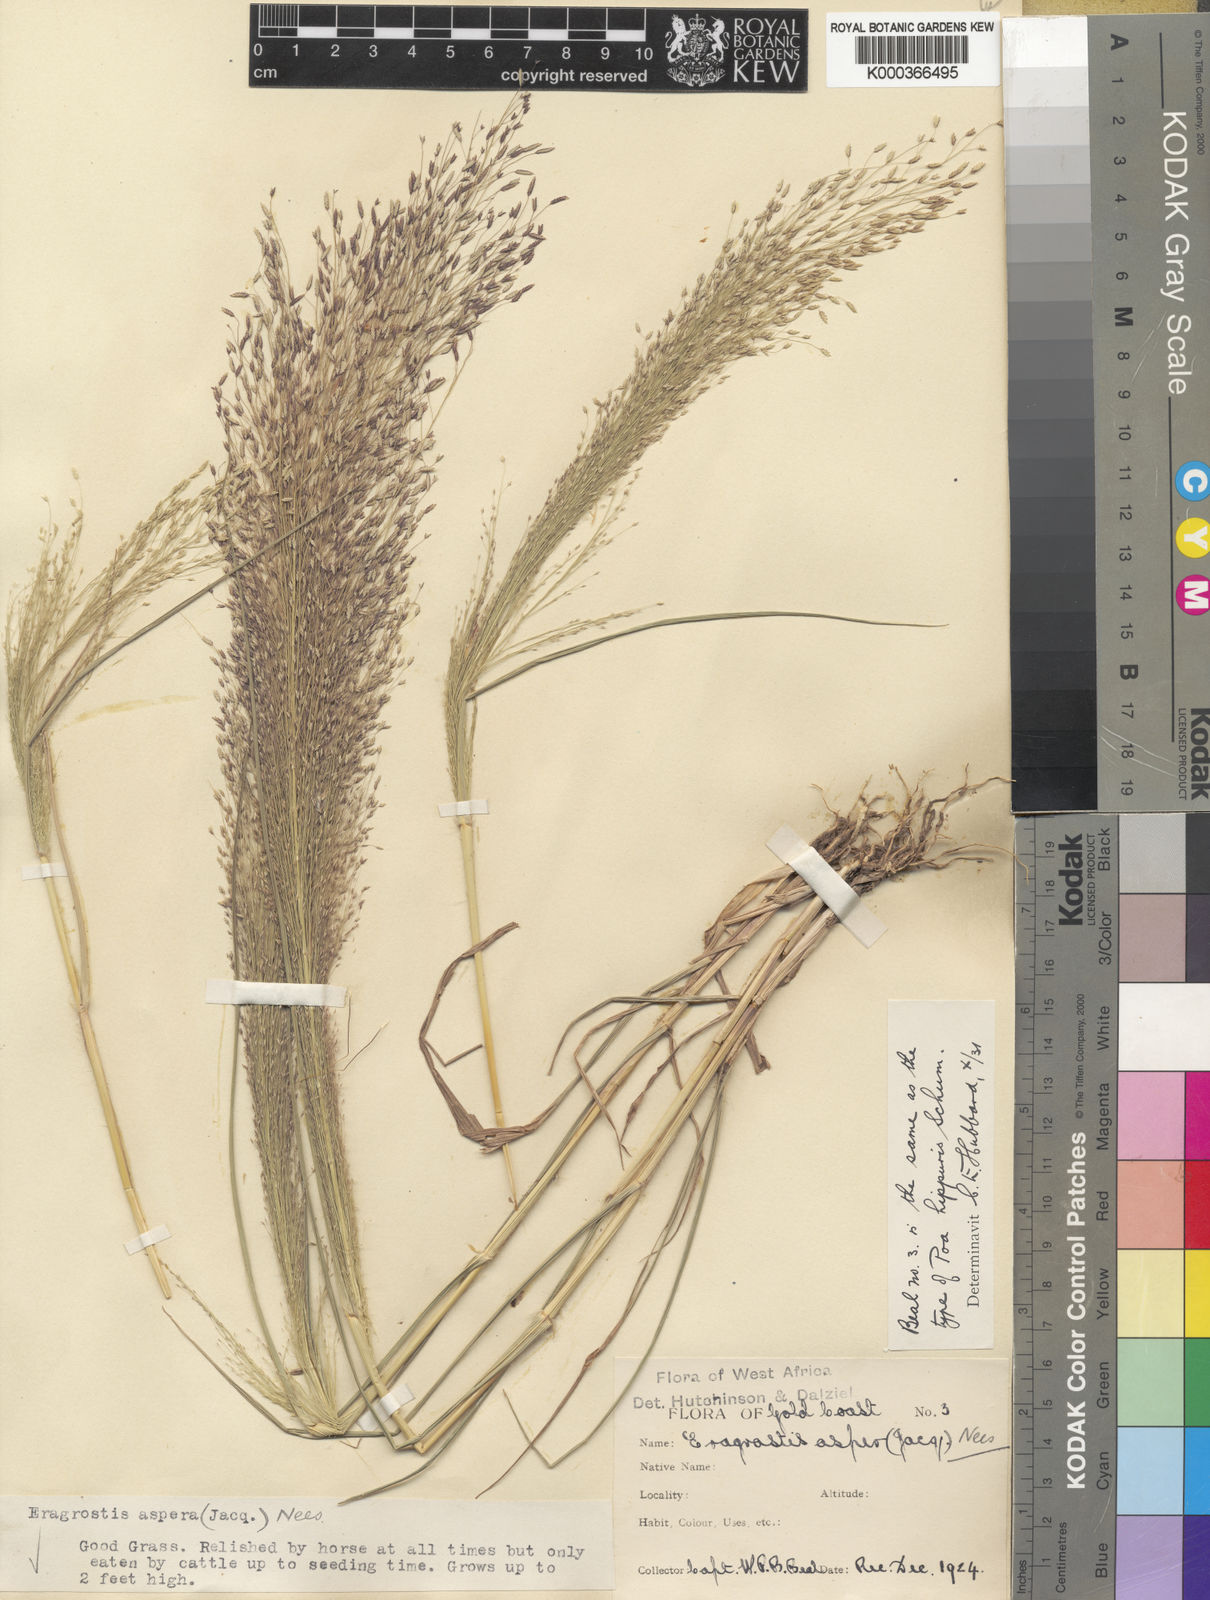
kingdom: Plantae
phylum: Tracheophyta
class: Liliopsida
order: Poales
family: Poaceae
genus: Eragrostis
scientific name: Eragrostis aspera
